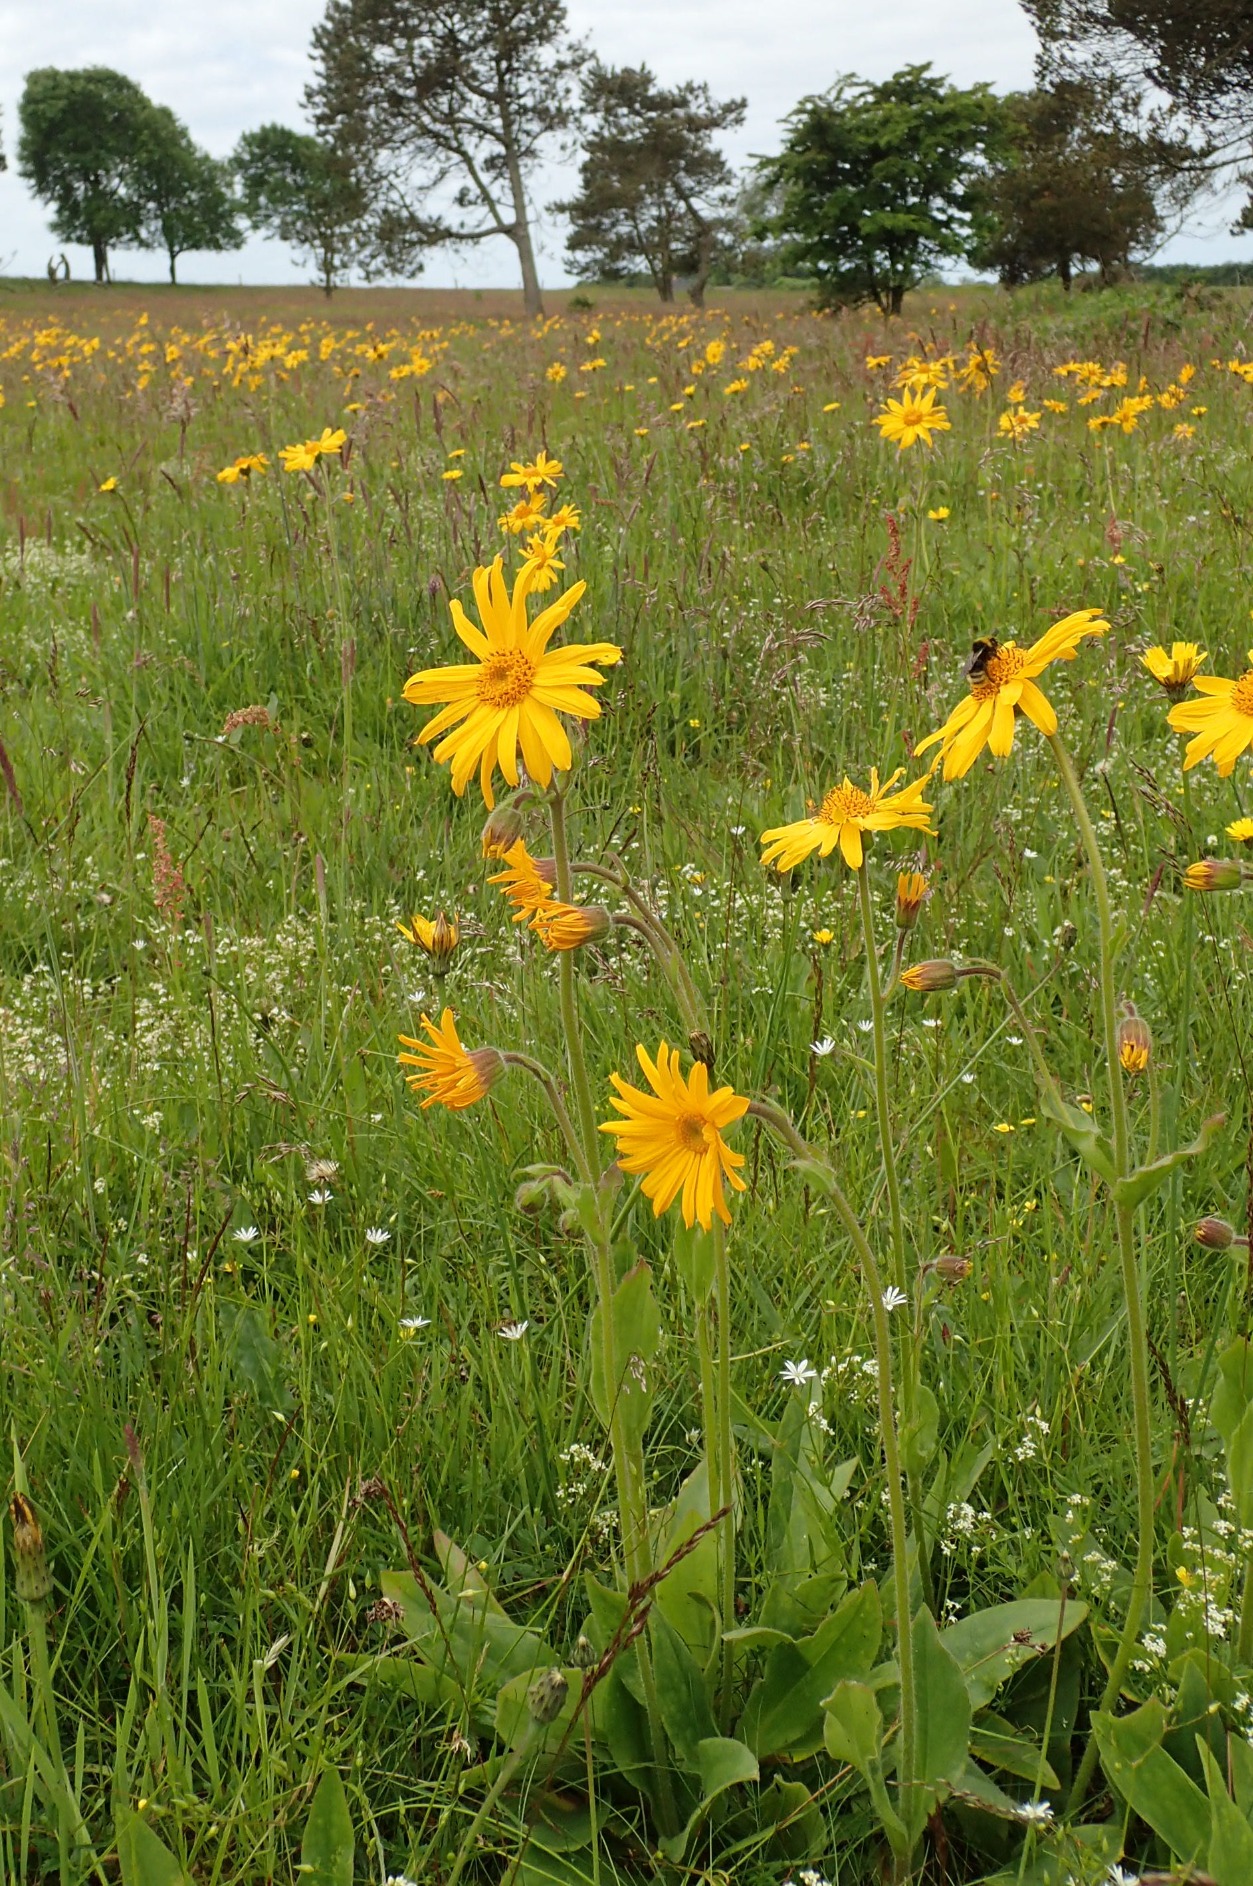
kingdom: Plantae
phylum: Tracheophyta
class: Magnoliopsida
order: Asterales
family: Asteraceae
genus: Arnica
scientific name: Arnica montana
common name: Guldblomme
